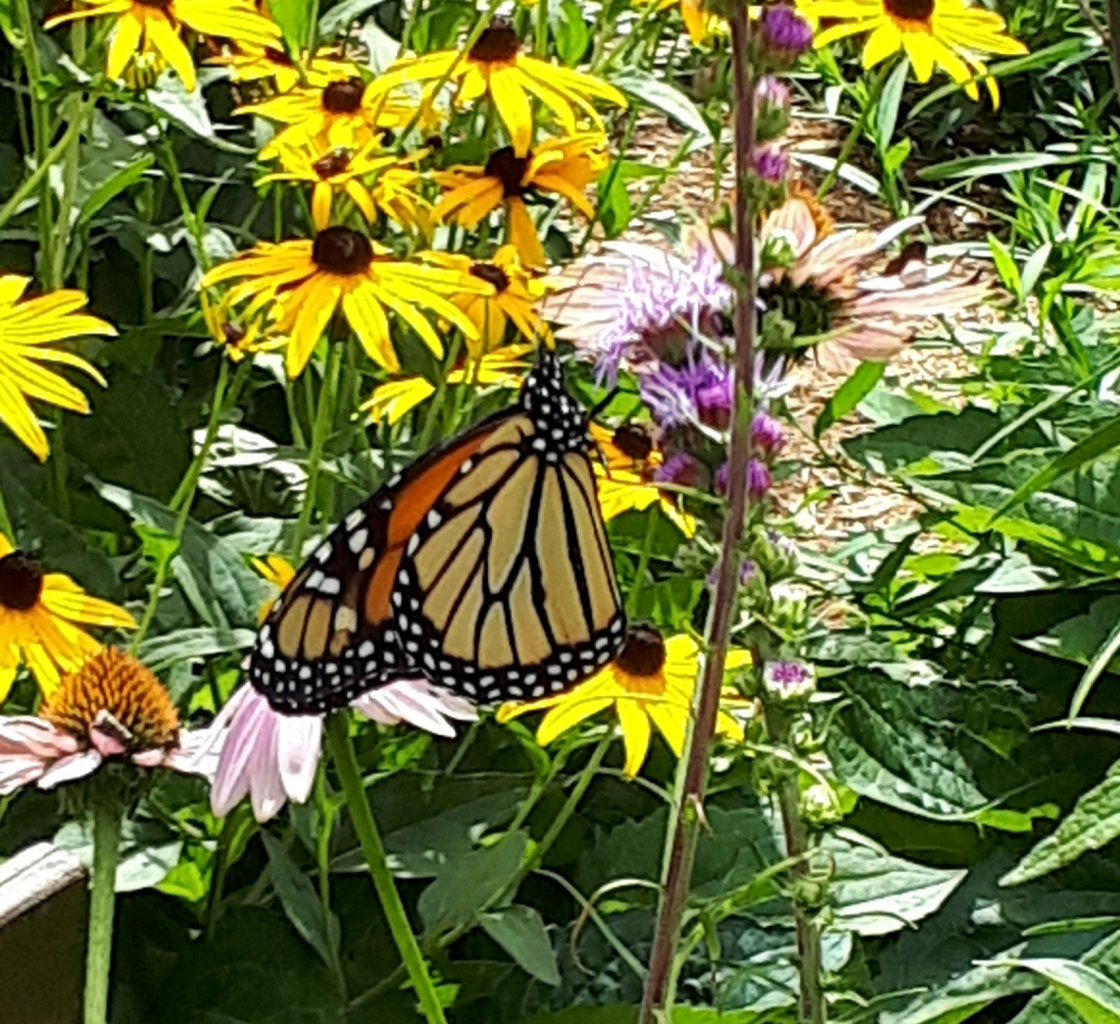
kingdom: Animalia
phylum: Arthropoda
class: Insecta
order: Lepidoptera
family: Nymphalidae
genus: Danaus
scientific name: Danaus plexippus
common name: Monarch
